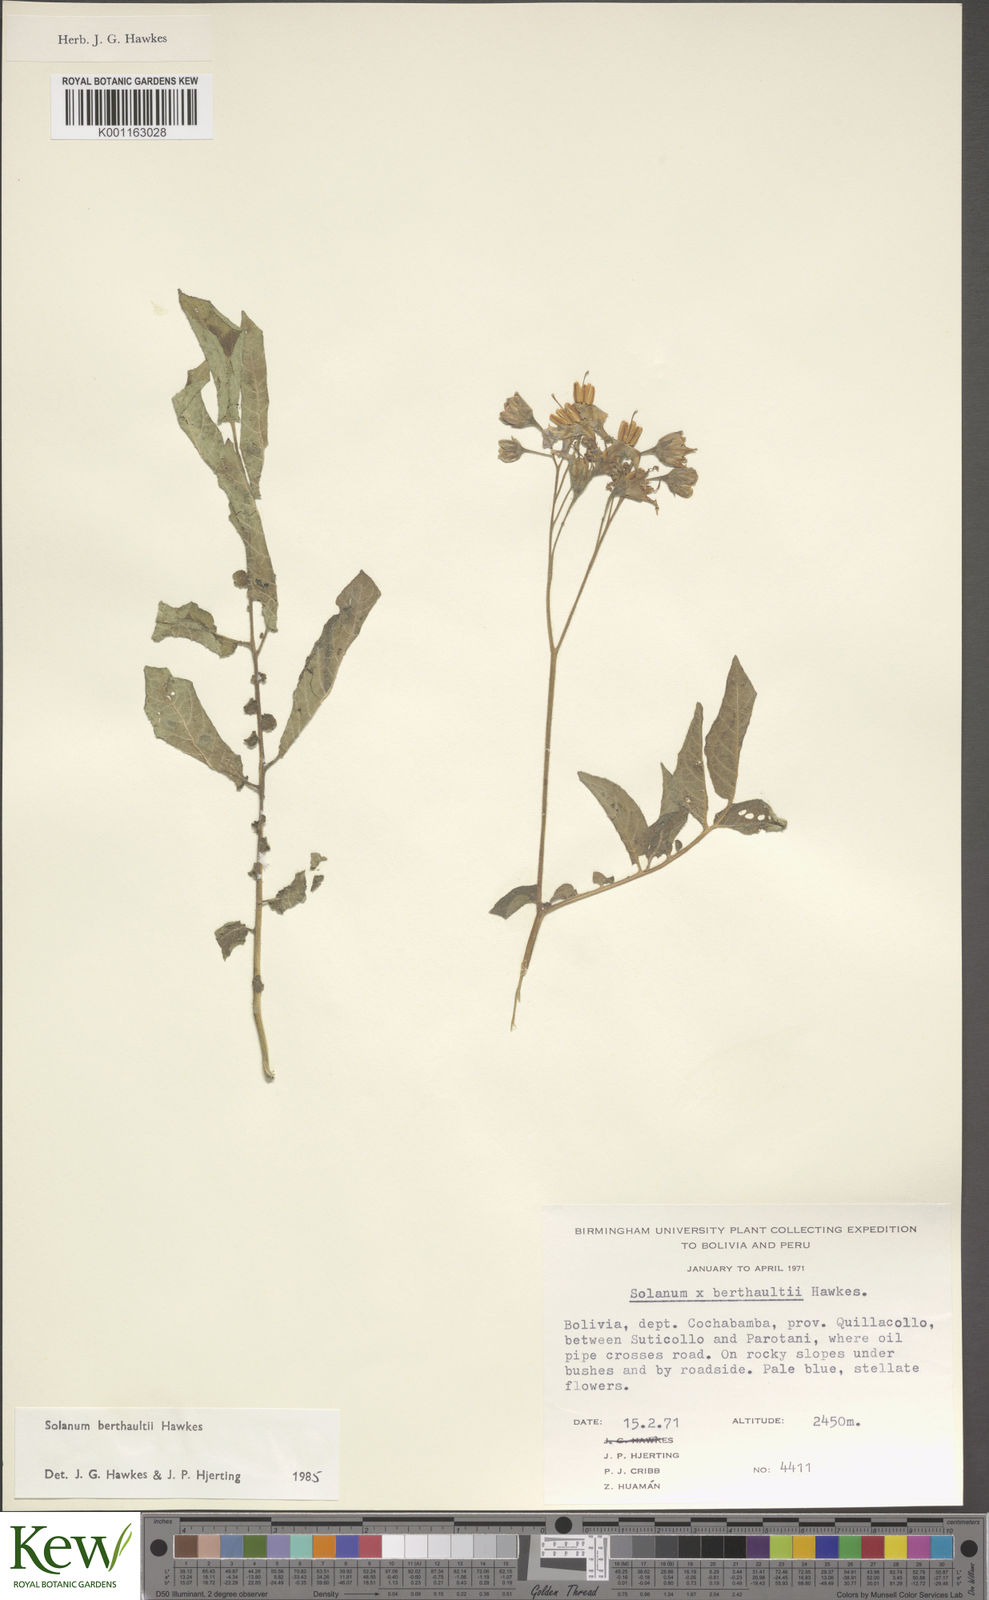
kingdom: Plantae
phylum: Tracheophyta
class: Magnoliopsida
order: Solanales
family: Solanaceae
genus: Solanum
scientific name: Solanum berthaultii
